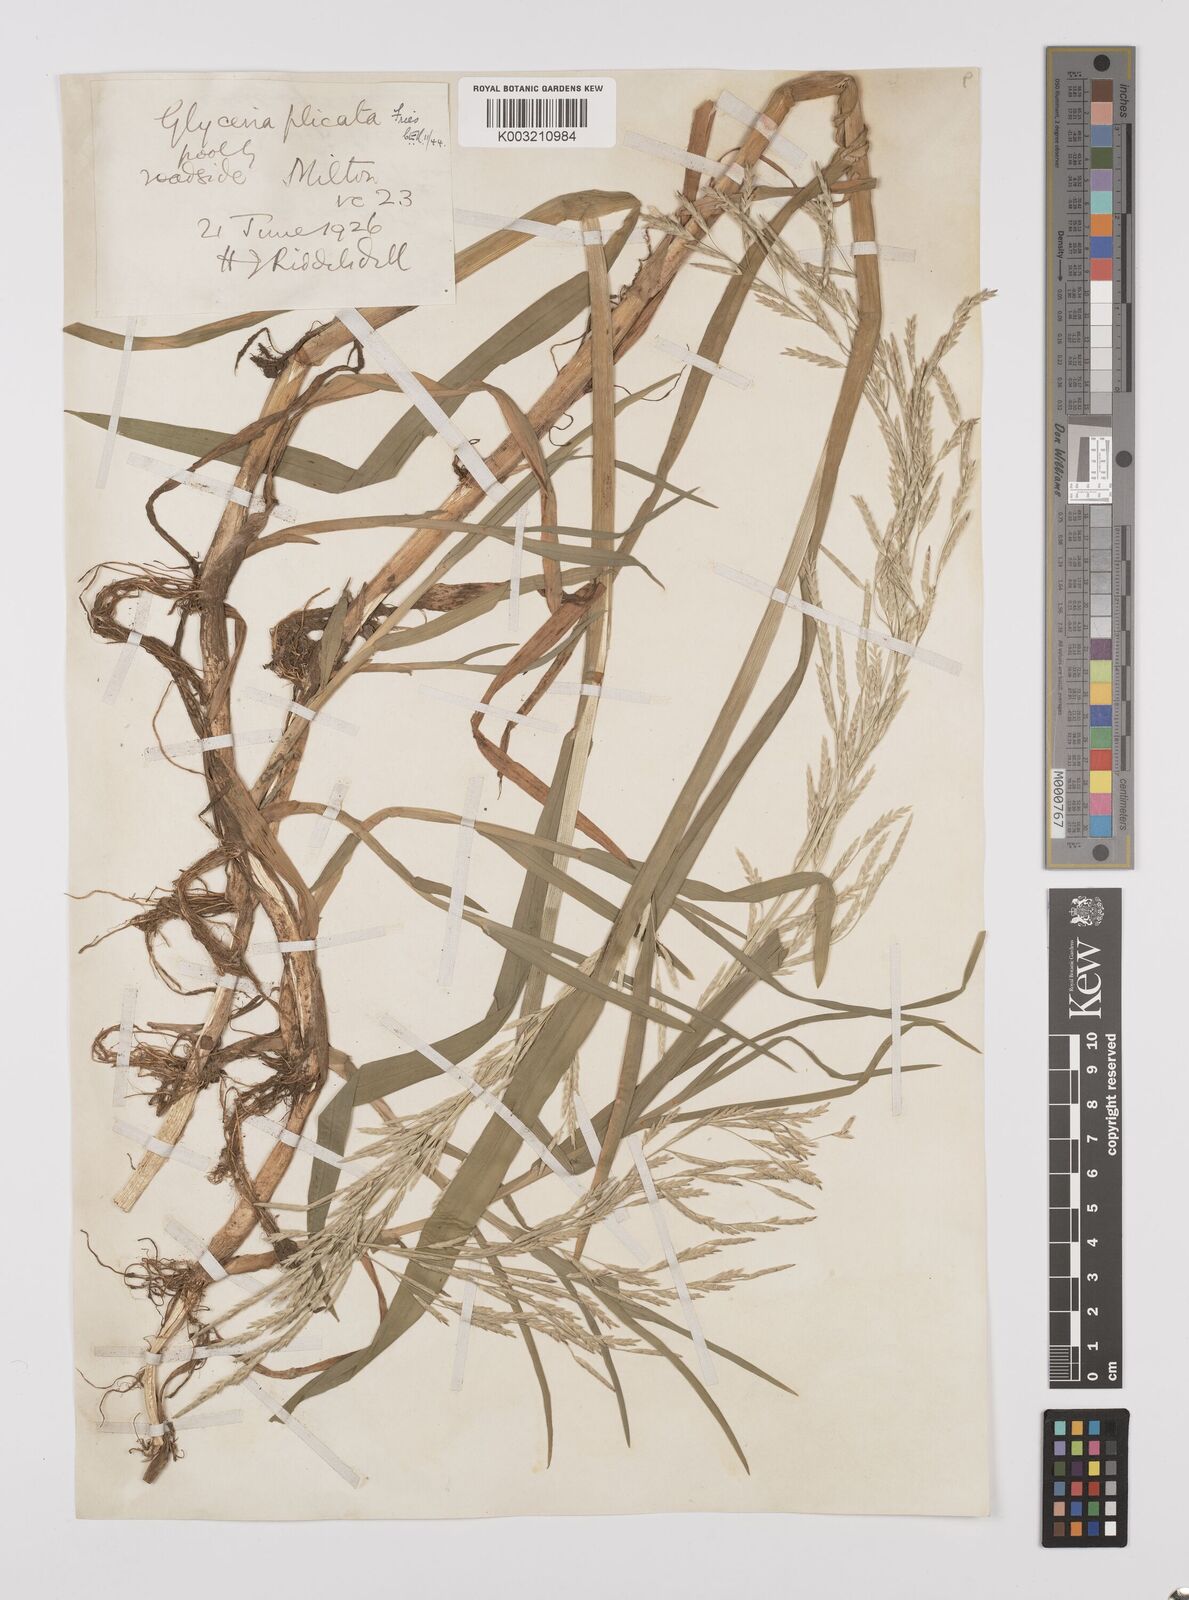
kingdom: Plantae
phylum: Tracheophyta
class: Liliopsida
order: Poales
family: Poaceae
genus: Glyceria
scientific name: Glyceria notata
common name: Plicate sweet-grass
